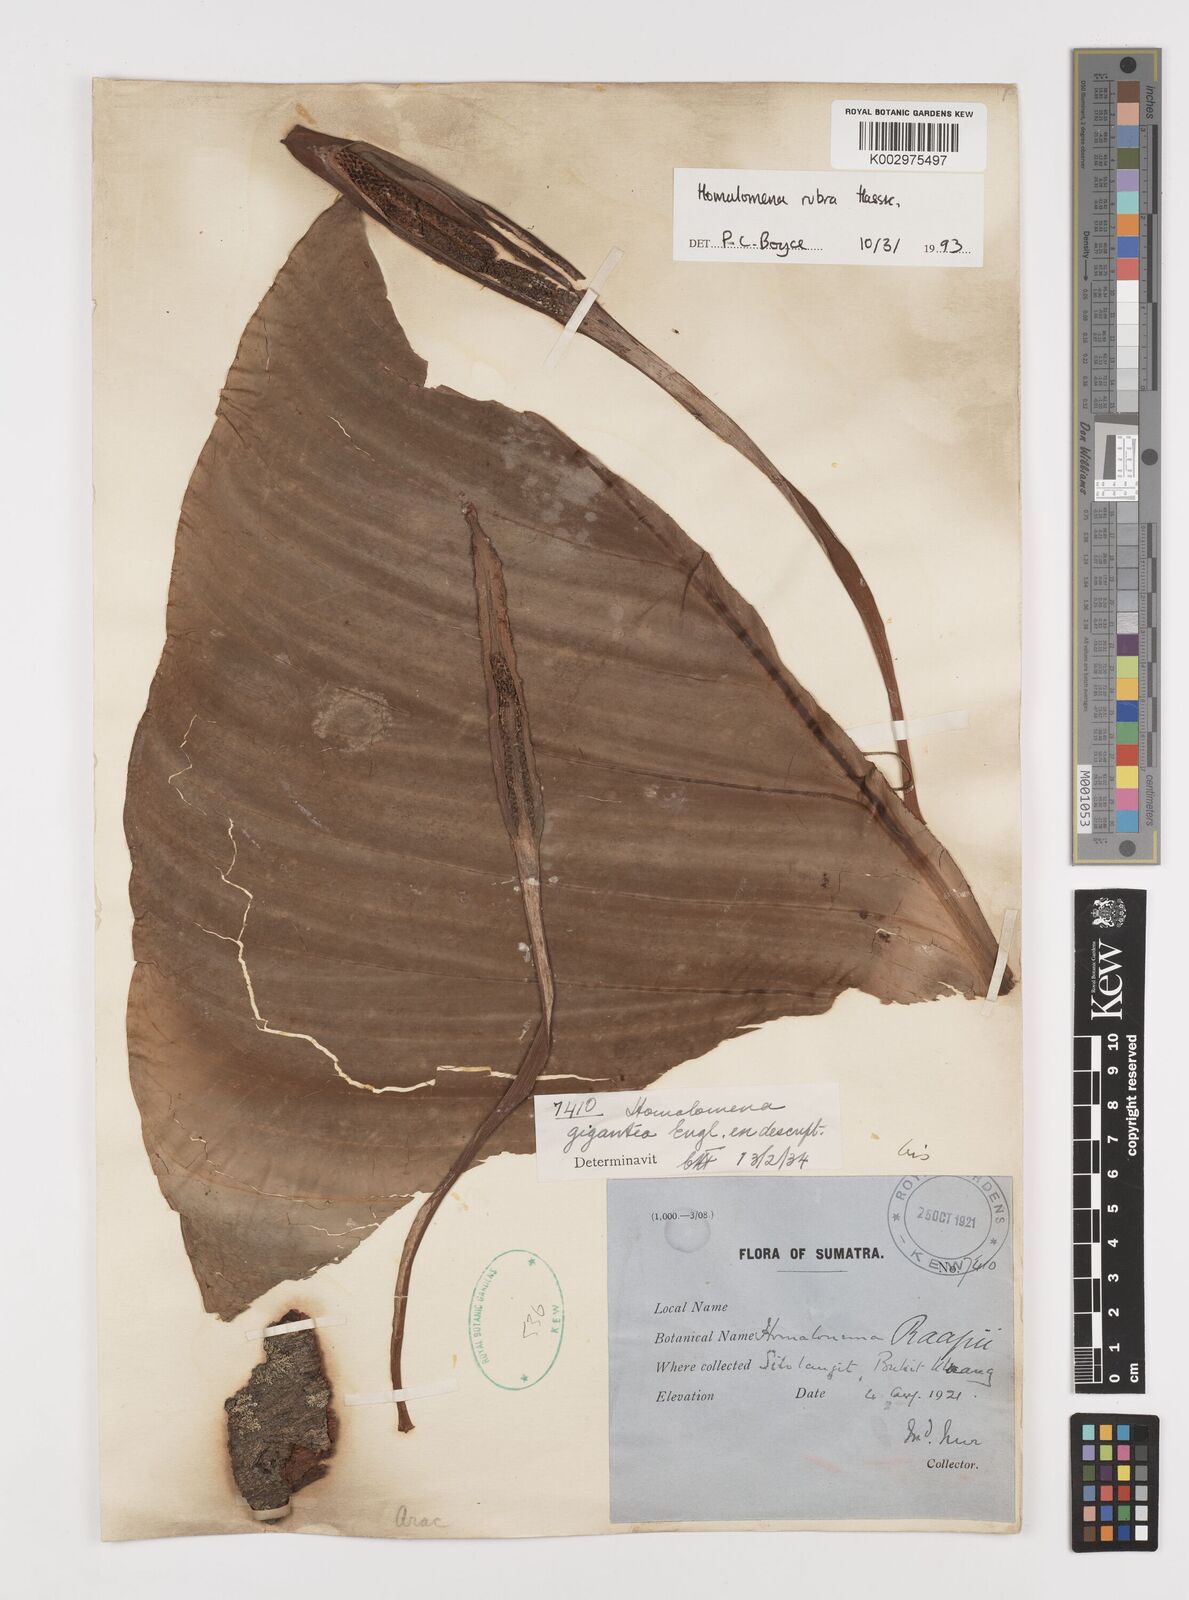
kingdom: Plantae
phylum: Tracheophyta
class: Liliopsida
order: Alismatales
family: Araceae
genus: Homalomena
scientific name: Homalomena pendula
